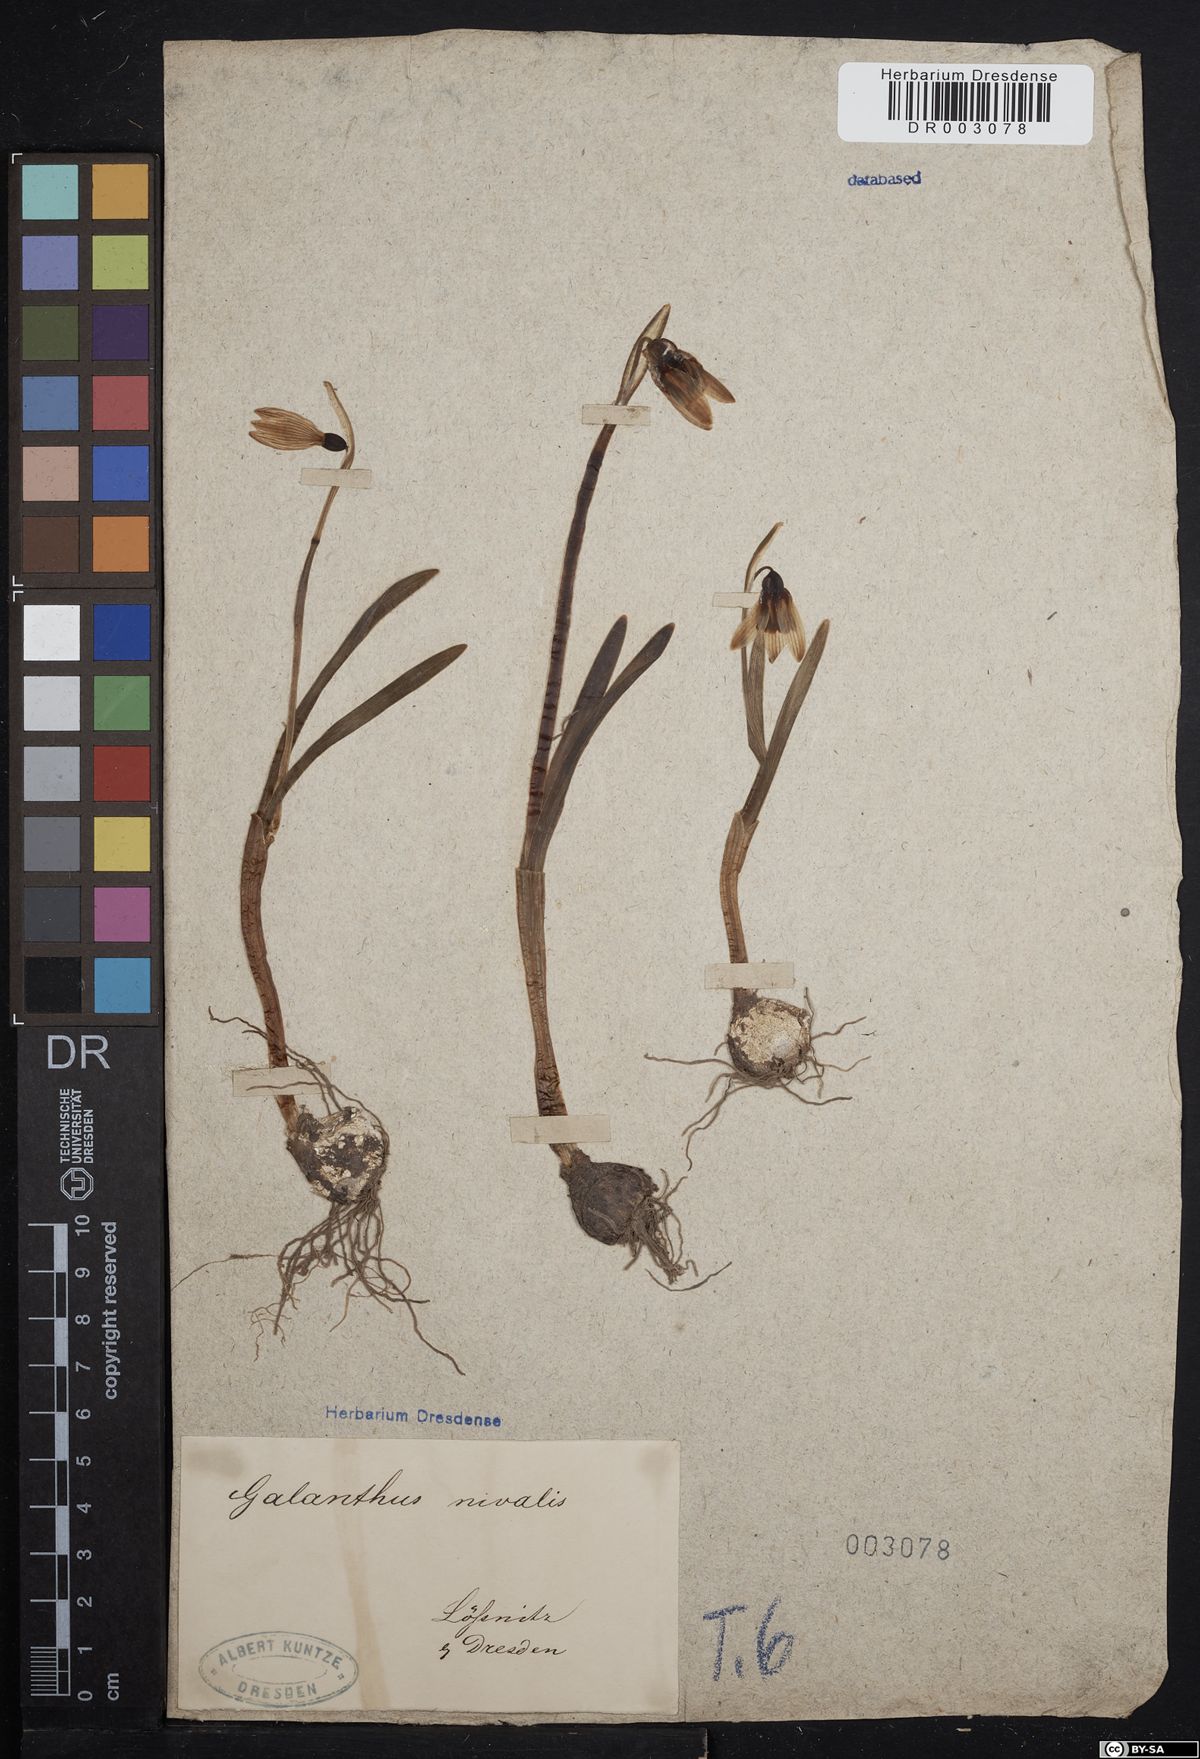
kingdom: Plantae
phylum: Tracheophyta
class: Liliopsida
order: Asparagales
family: Amaryllidaceae
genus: Galanthus
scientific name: Galanthus nivalis
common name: Snowdrop
